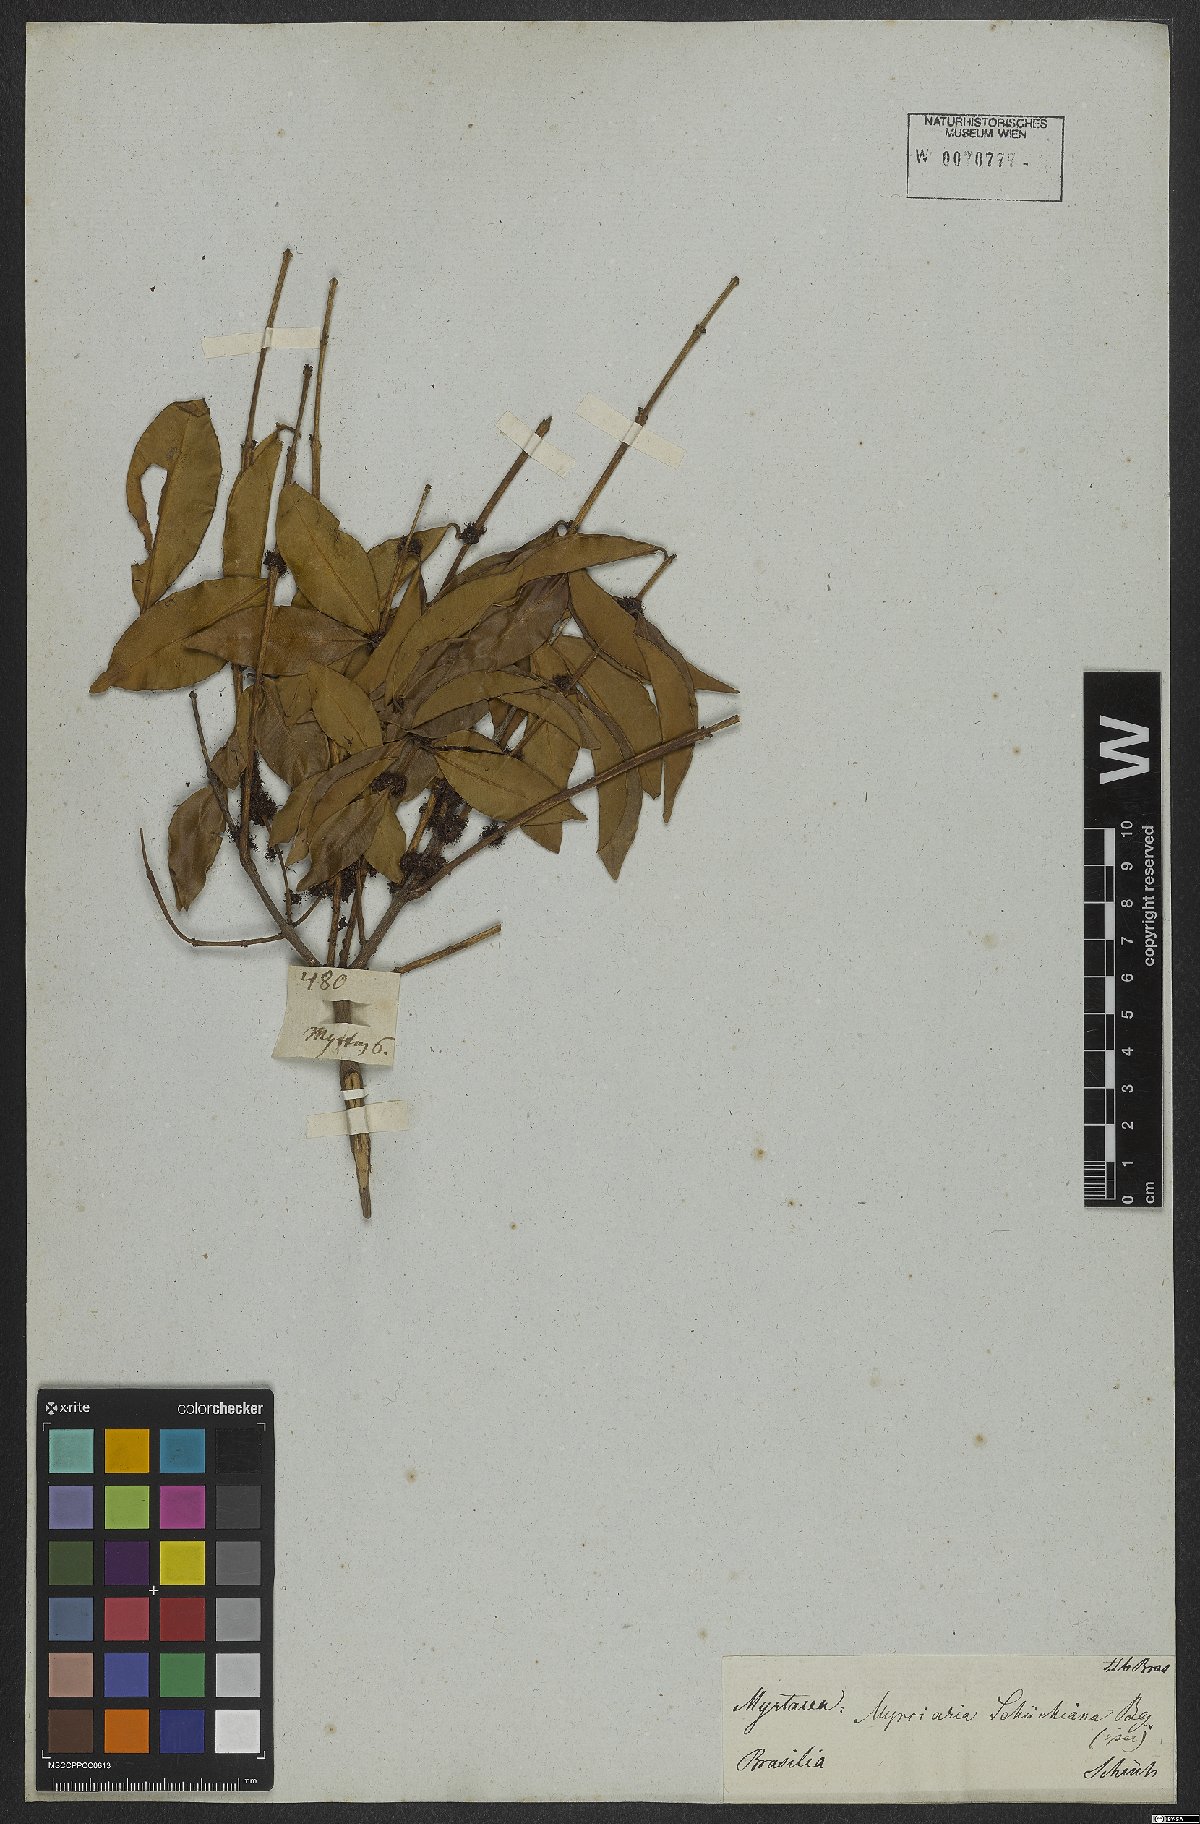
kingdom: Plantae
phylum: Tracheophyta
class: Magnoliopsida
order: Myrtales
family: Myrtaceae
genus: Myrciaria
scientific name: Myrciaria floribunda
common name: Guavaberry
